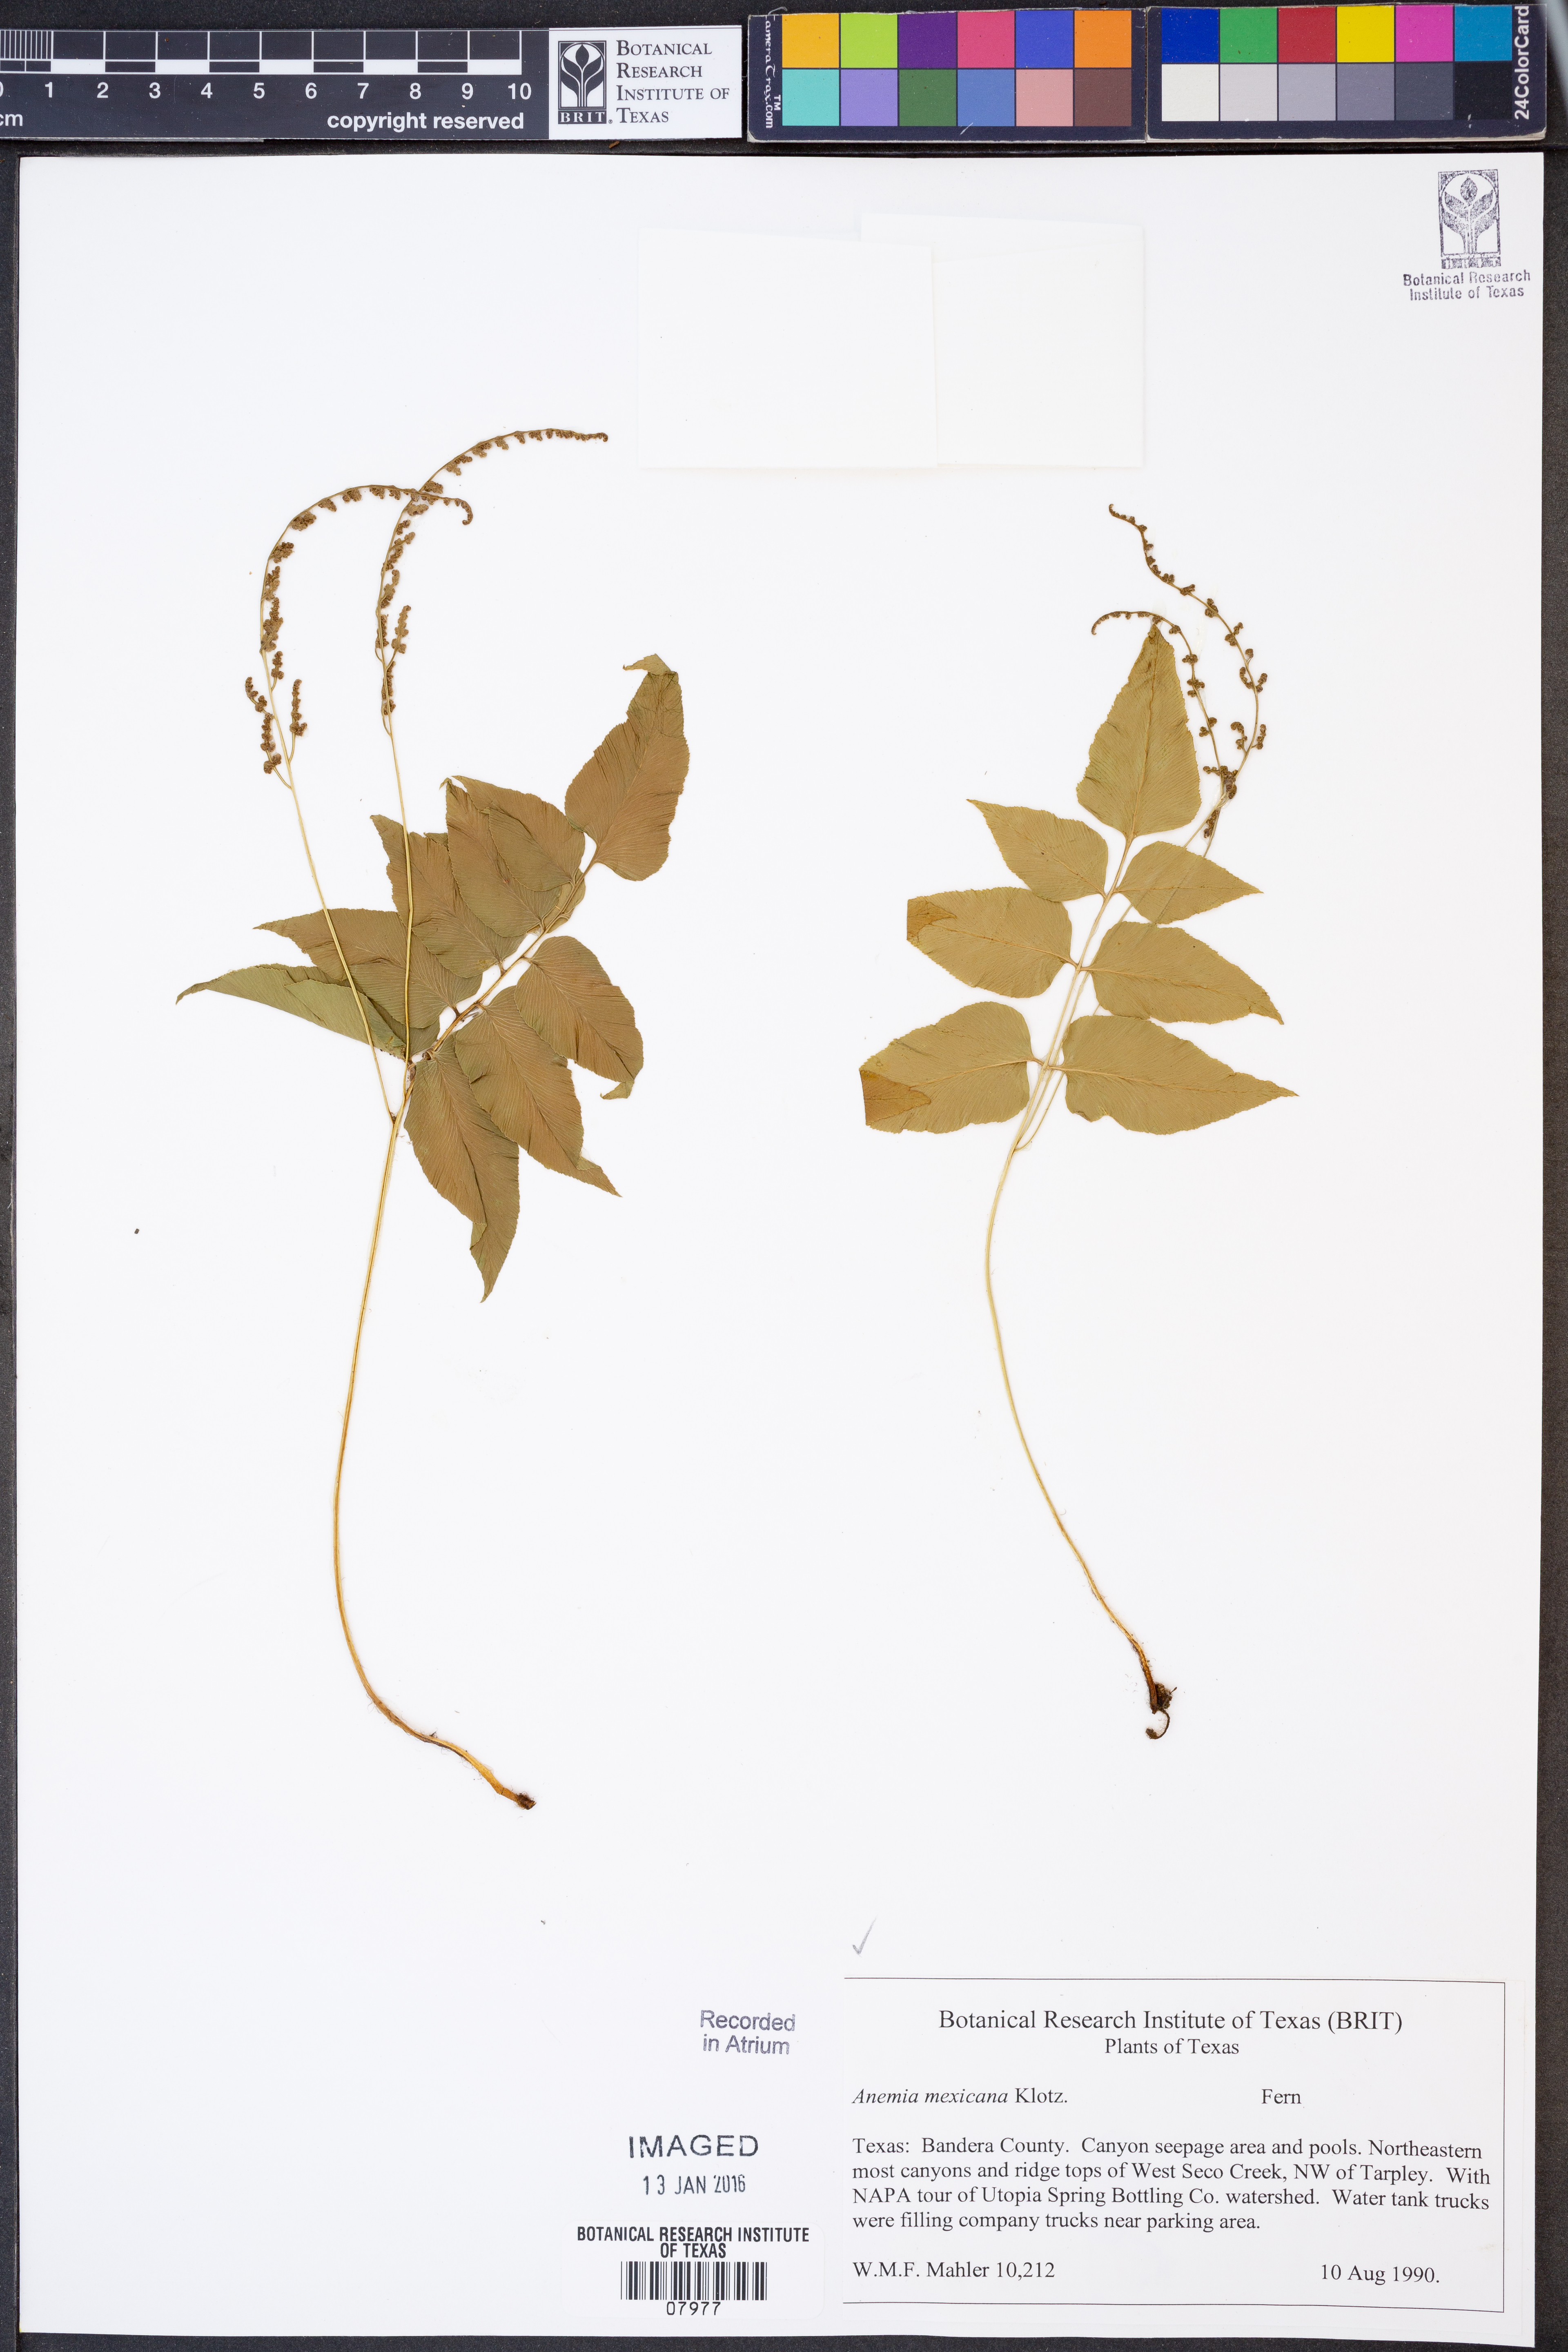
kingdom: Plantae
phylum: Tracheophyta
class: Polypodiopsida
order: Schizaeales
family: Anemiaceae
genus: Anemia
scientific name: Anemia mexicana
